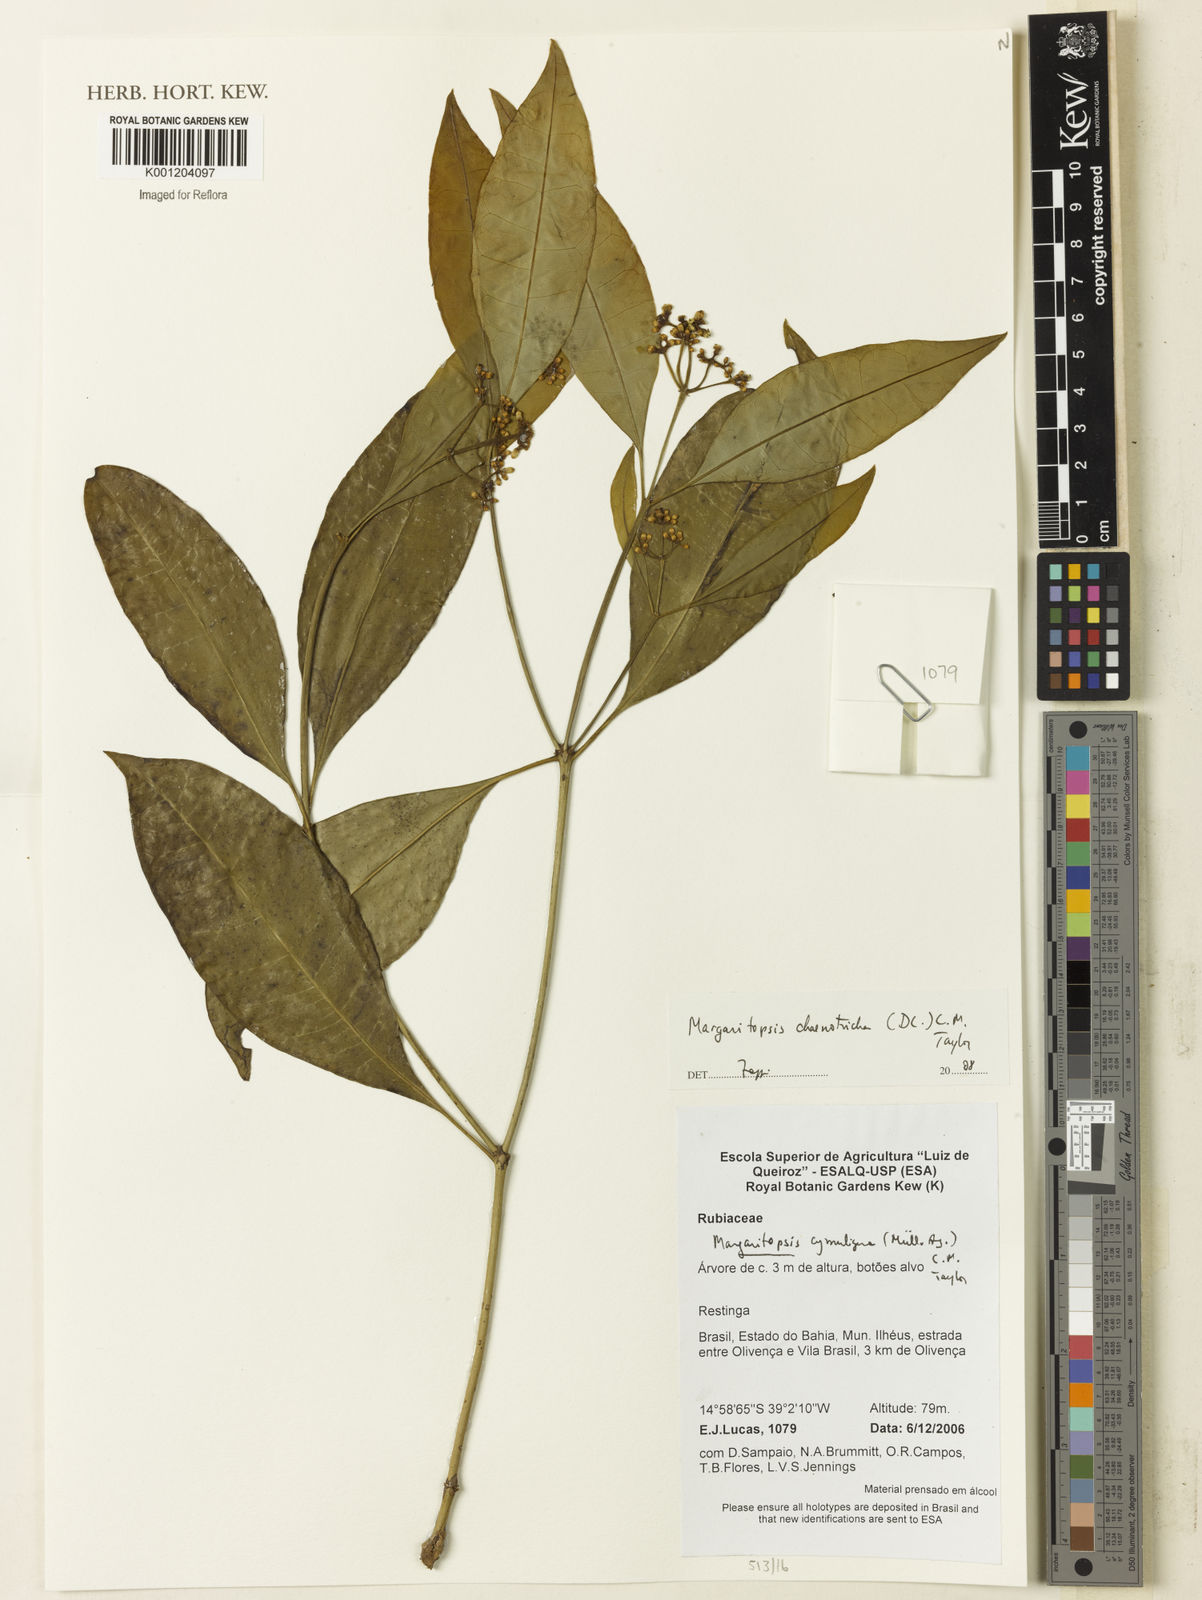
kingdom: Plantae
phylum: Tracheophyta
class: Magnoliopsida
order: Gentianales
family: Rubiaceae
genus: Eumachia
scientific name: Eumachia chaenotricha
